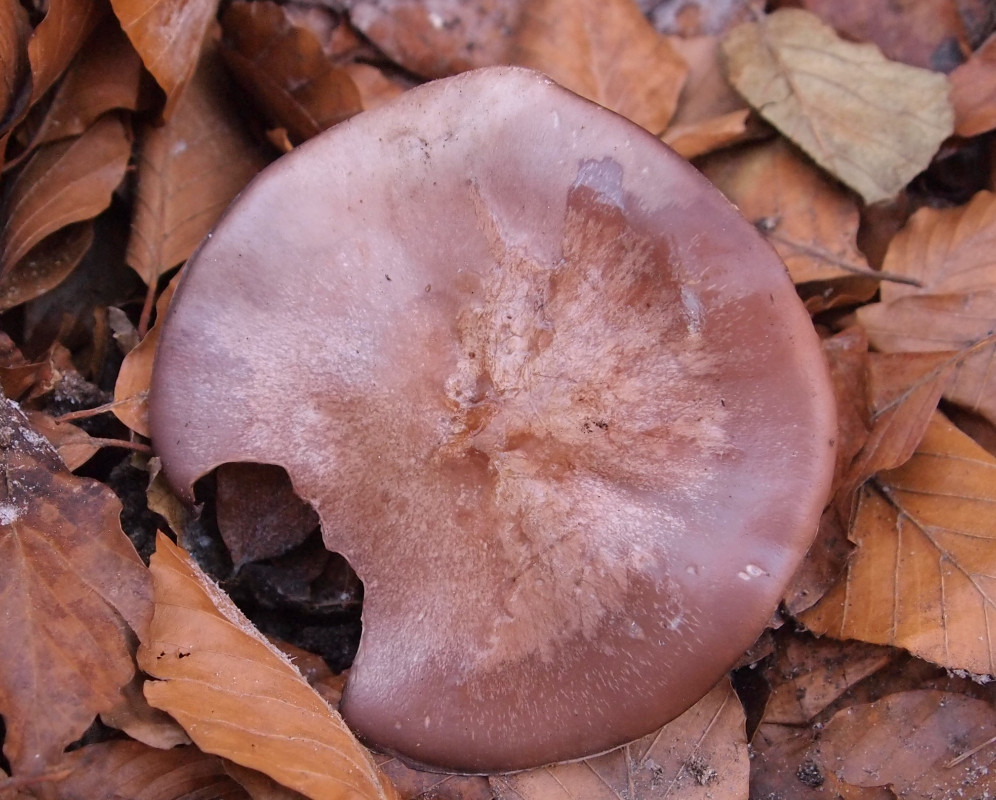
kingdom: Fungi
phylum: Basidiomycota
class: Agaricomycetes
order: Agaricales
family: Tricholomataceae
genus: Lepista
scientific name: Lepista nuda
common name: violet hekseringshat
